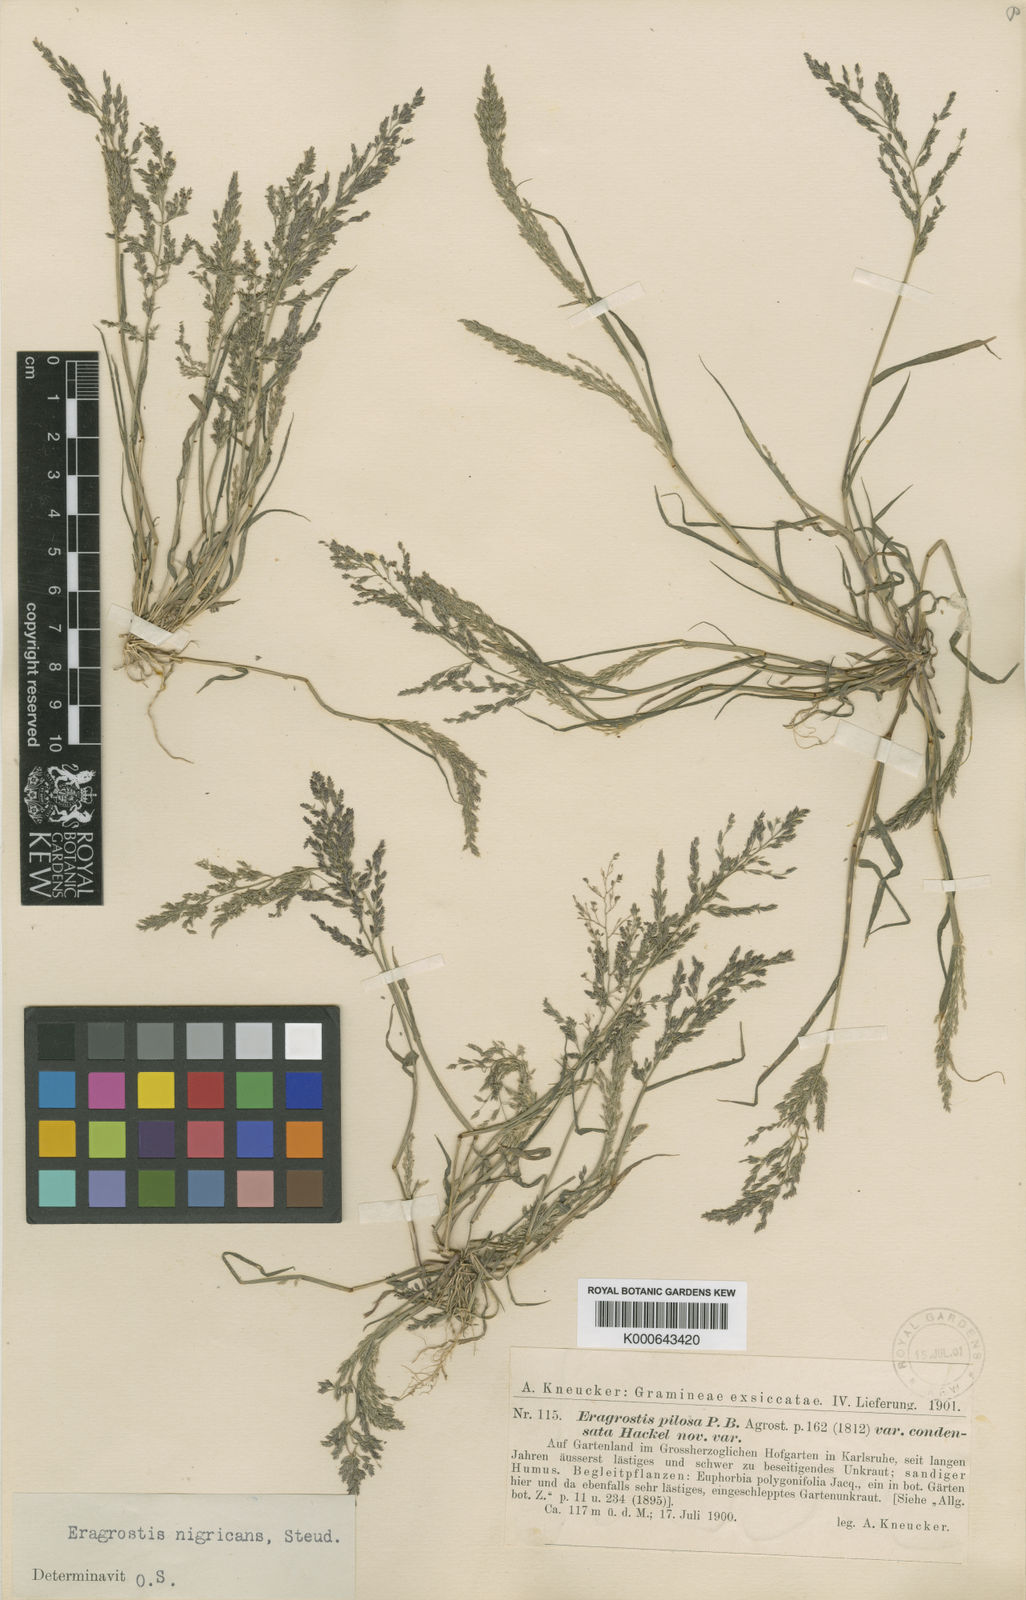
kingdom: Plantae
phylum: Tracheophyta
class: Liliopsida
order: Poales
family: Poaceae
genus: Eragrostis
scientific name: Eragrostis multicaulis
